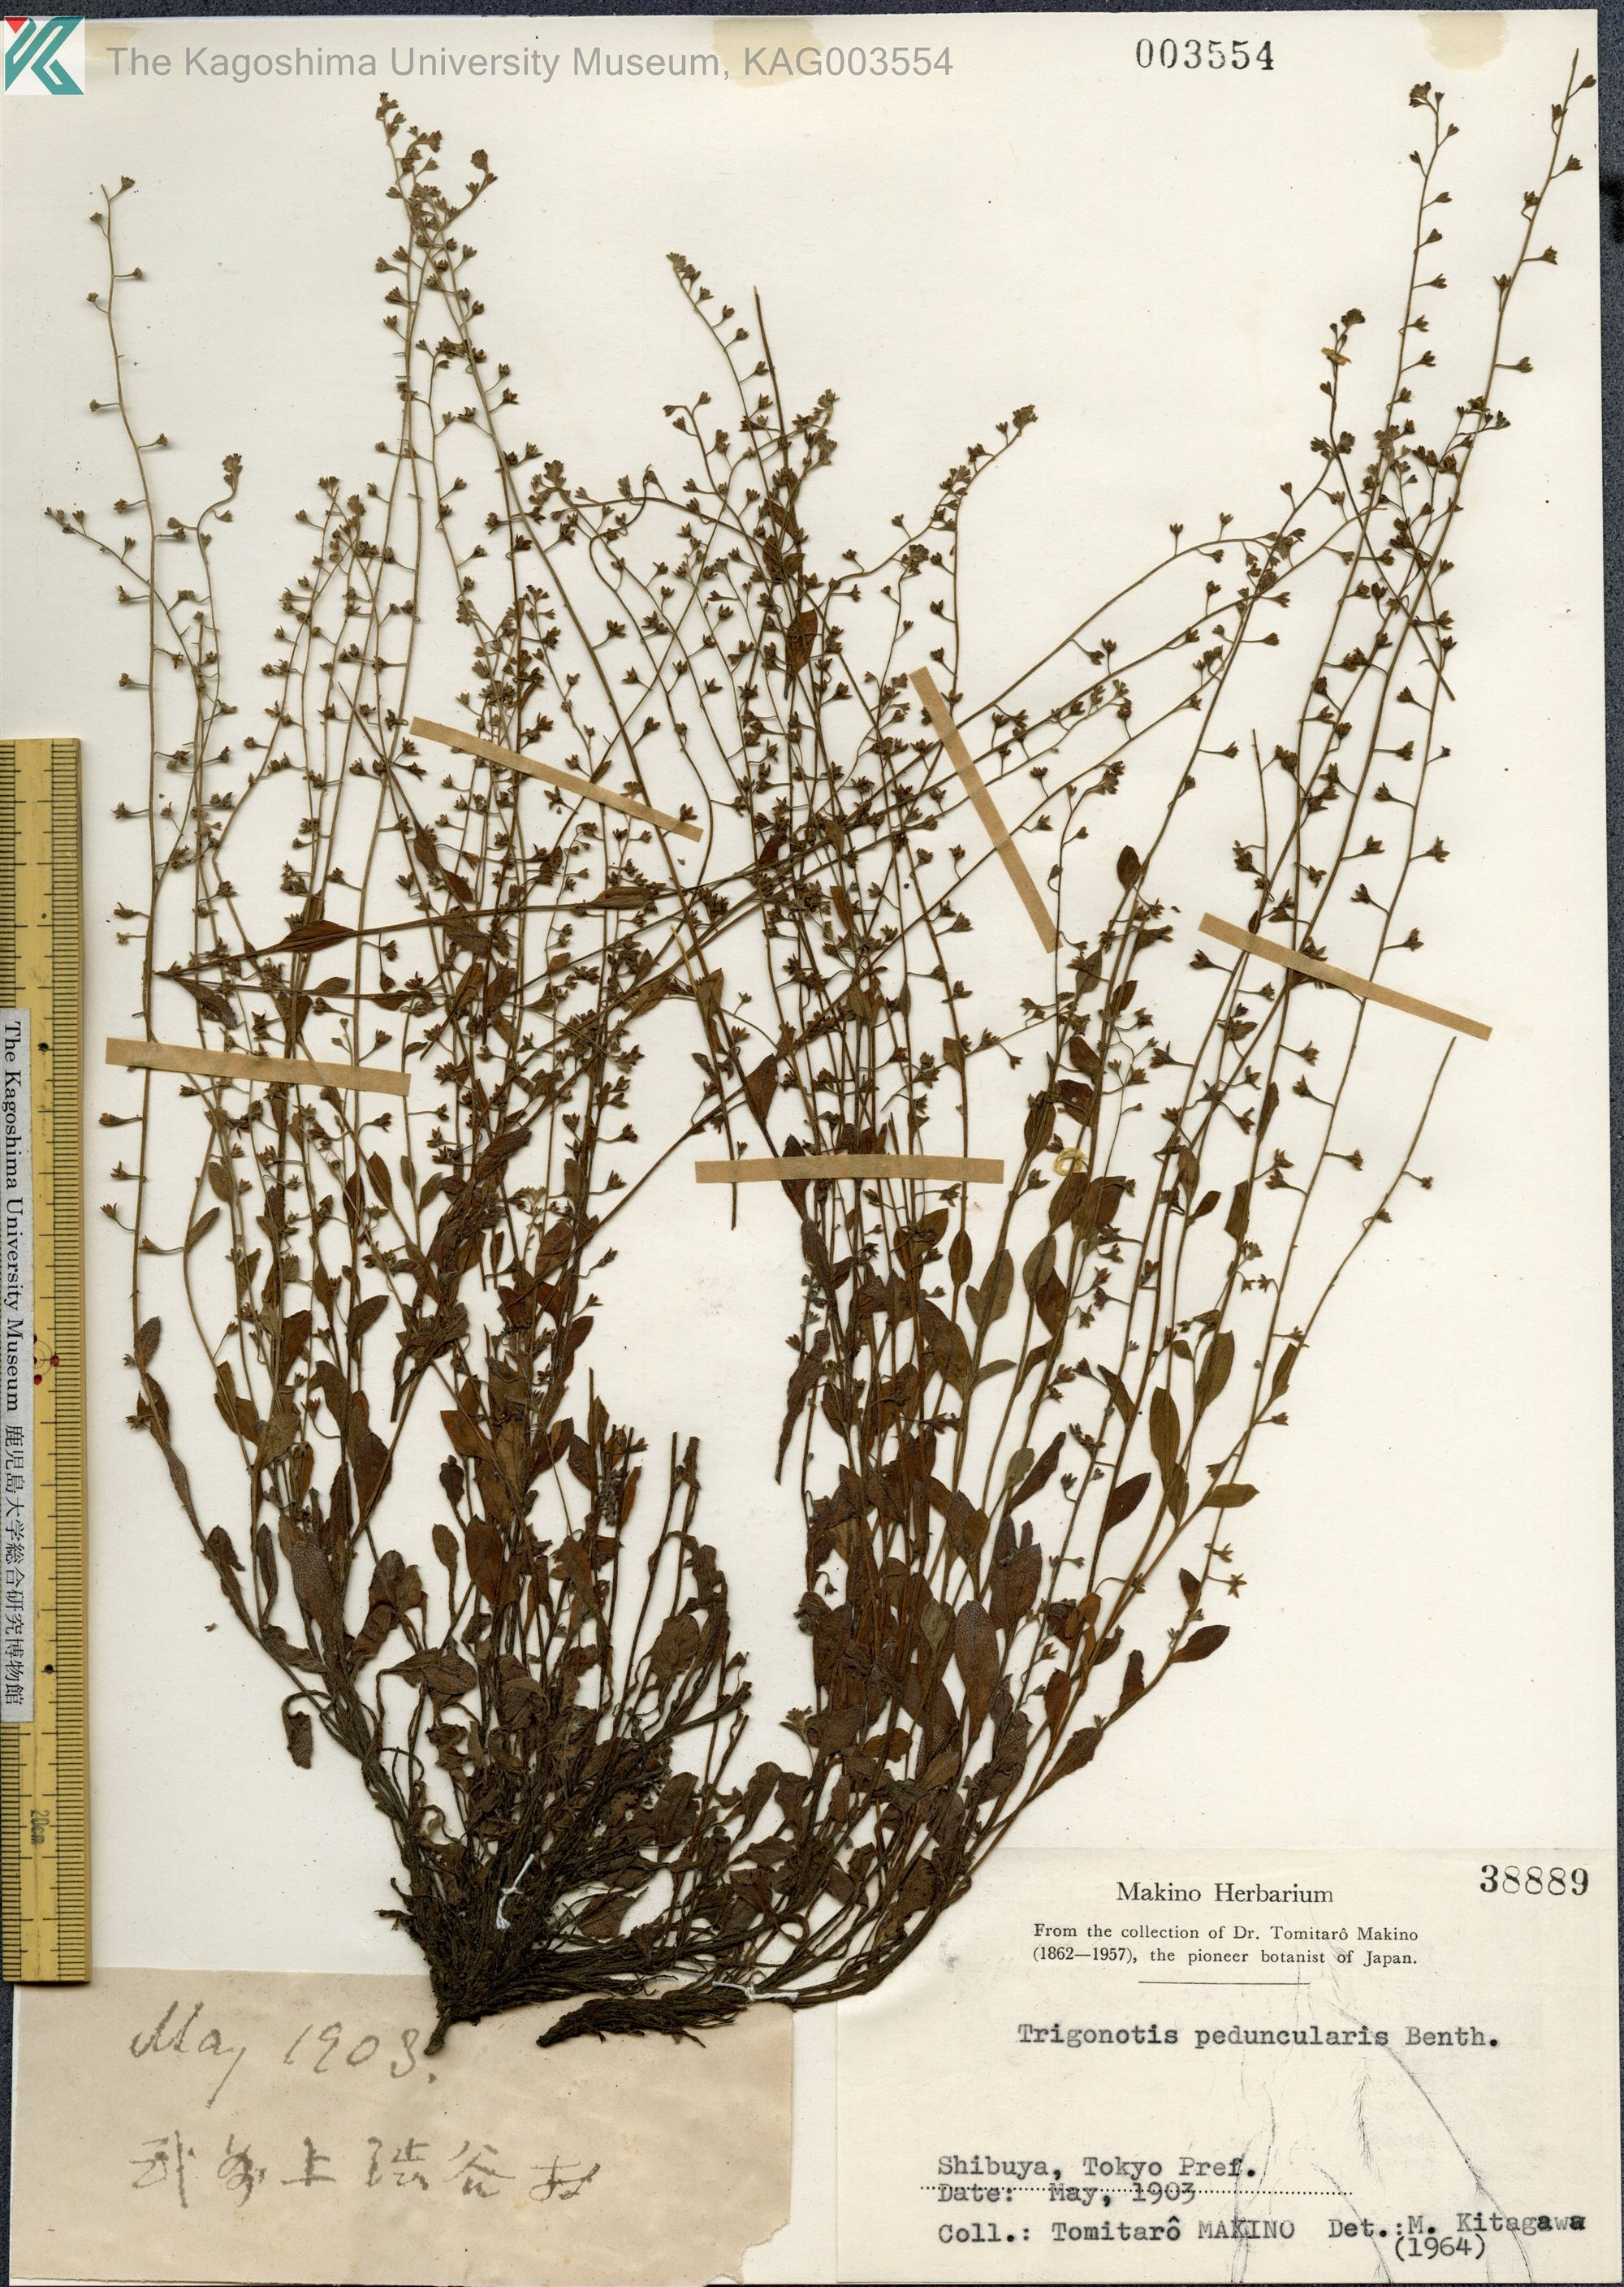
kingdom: Plantae
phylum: Tracheophyta
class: Magnoliopsida
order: Boraginales
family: Boraginaceae
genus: Trigonotis
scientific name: Trigonotis peduncularis
